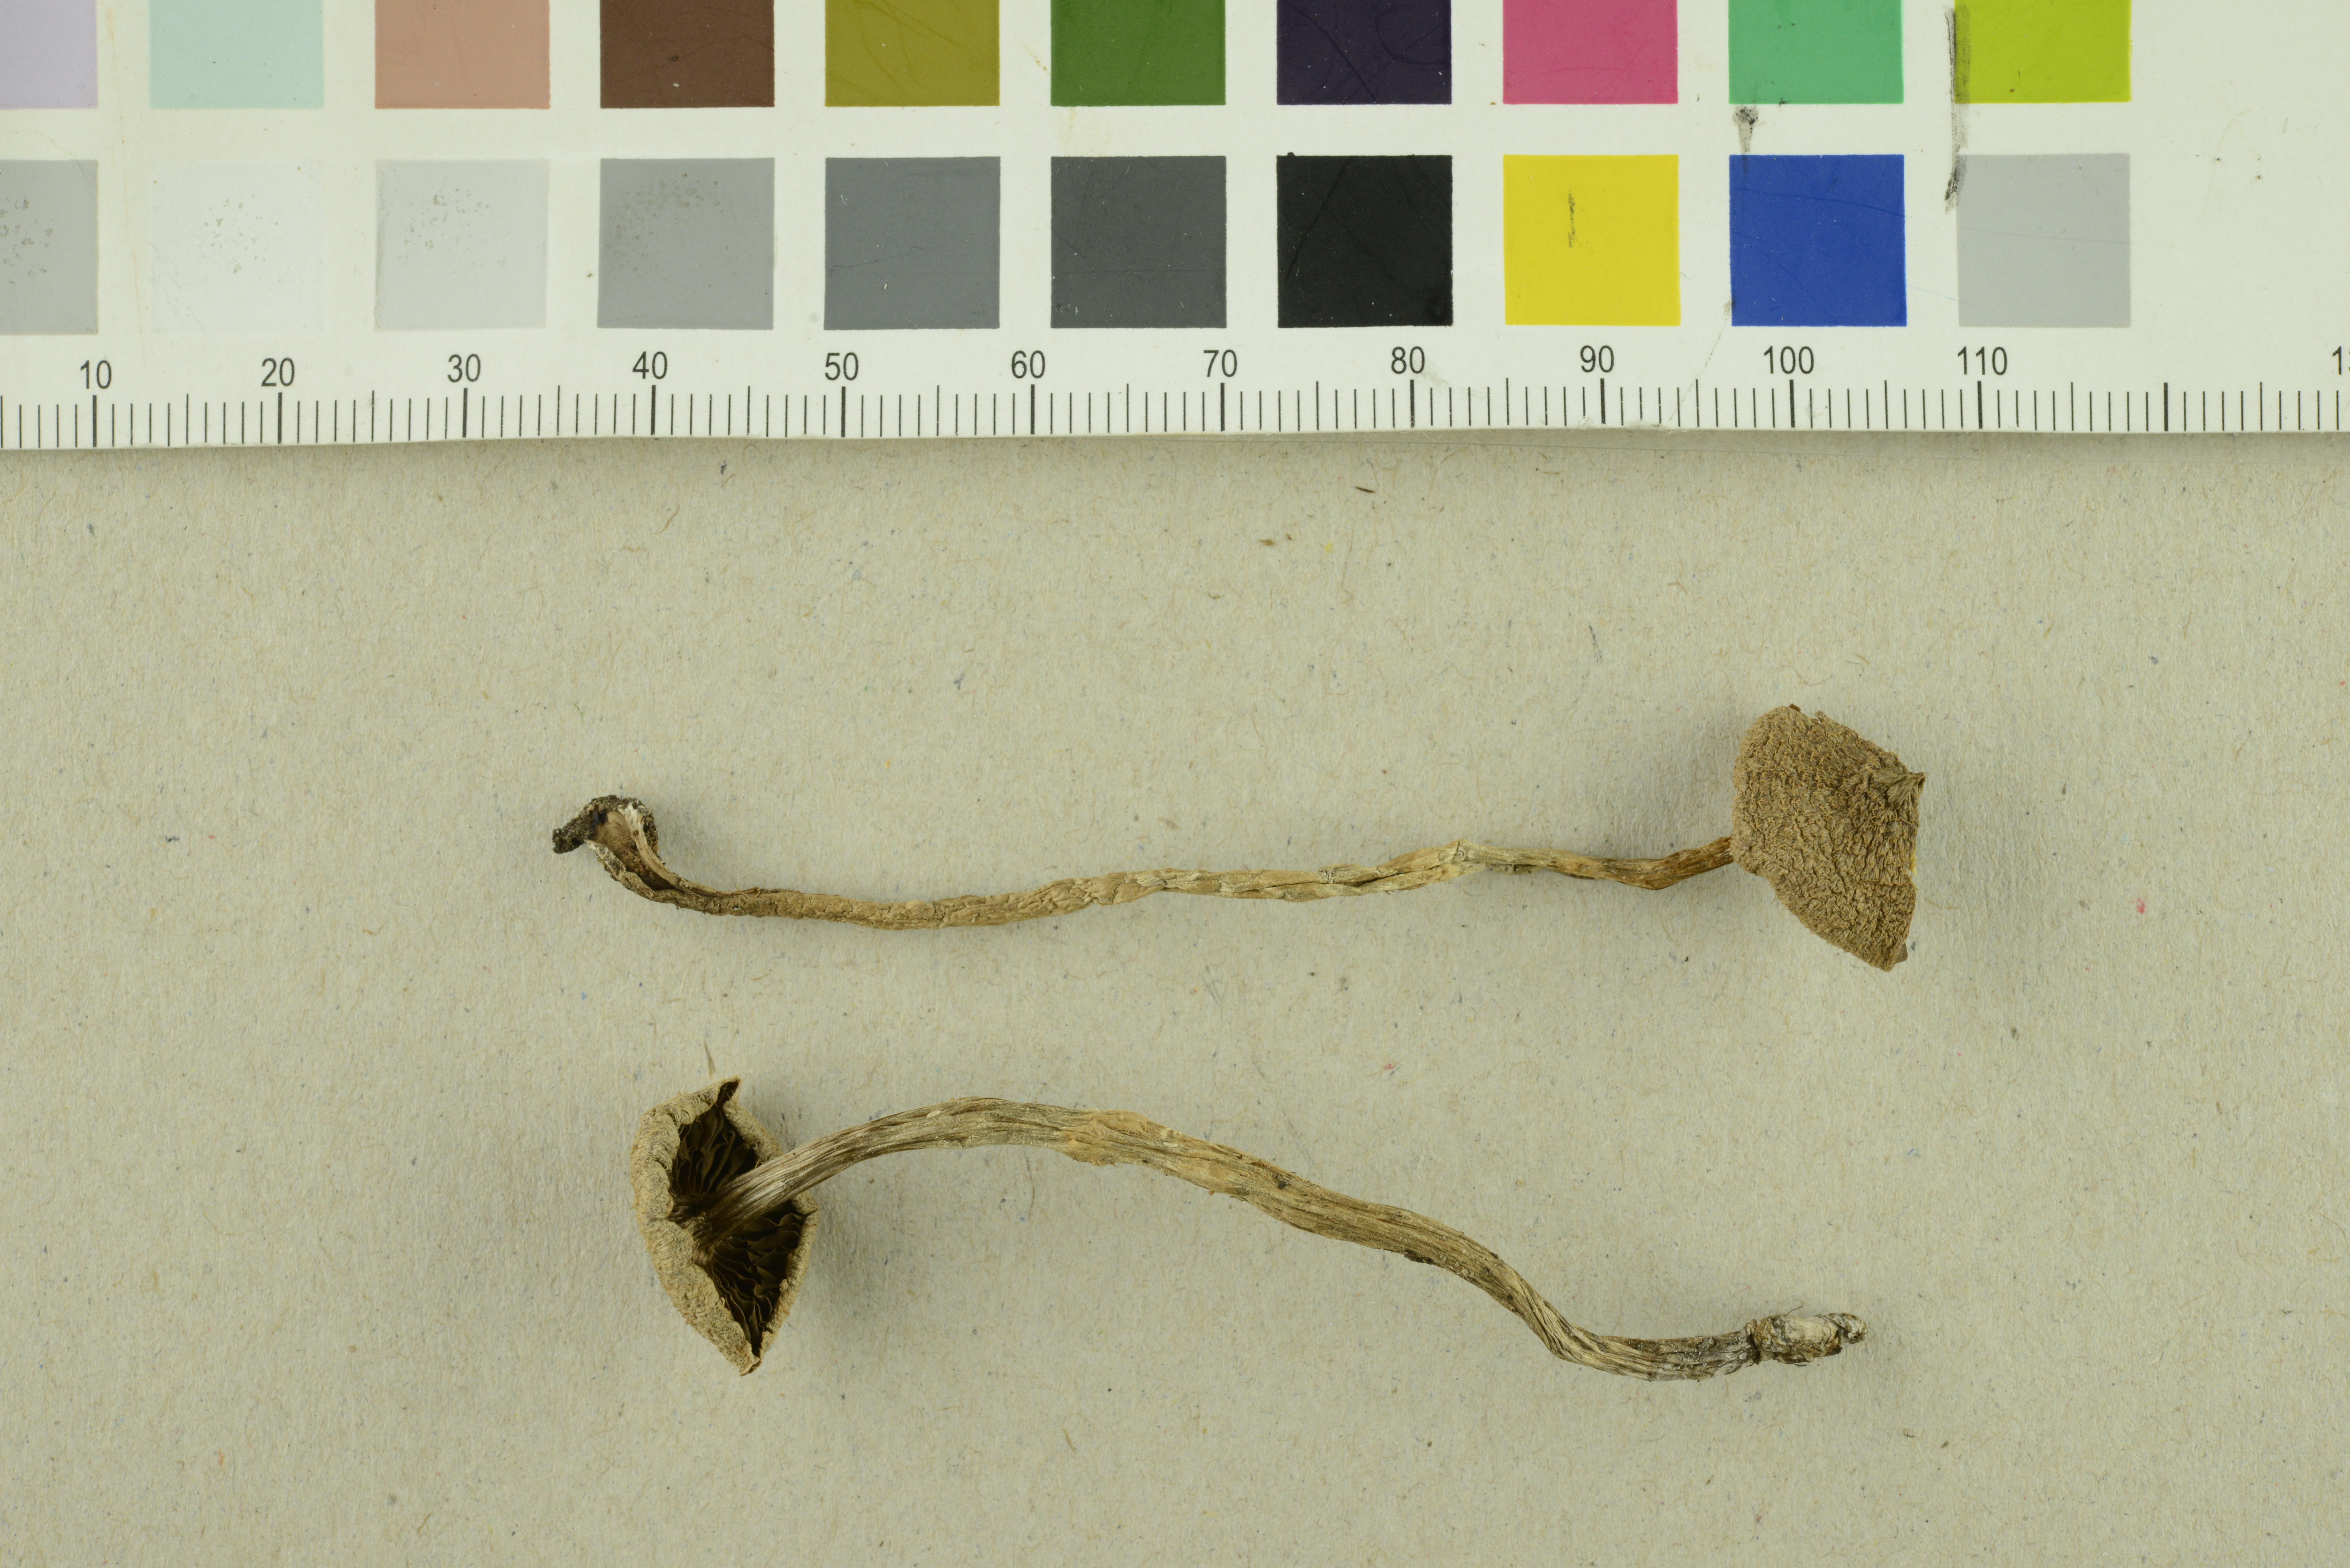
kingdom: Fungi
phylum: Basidiomycota
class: Agaricomycetes
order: Agaricales
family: Cortinariaceae
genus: Cortinarius
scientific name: Cortinarius angelesianus
